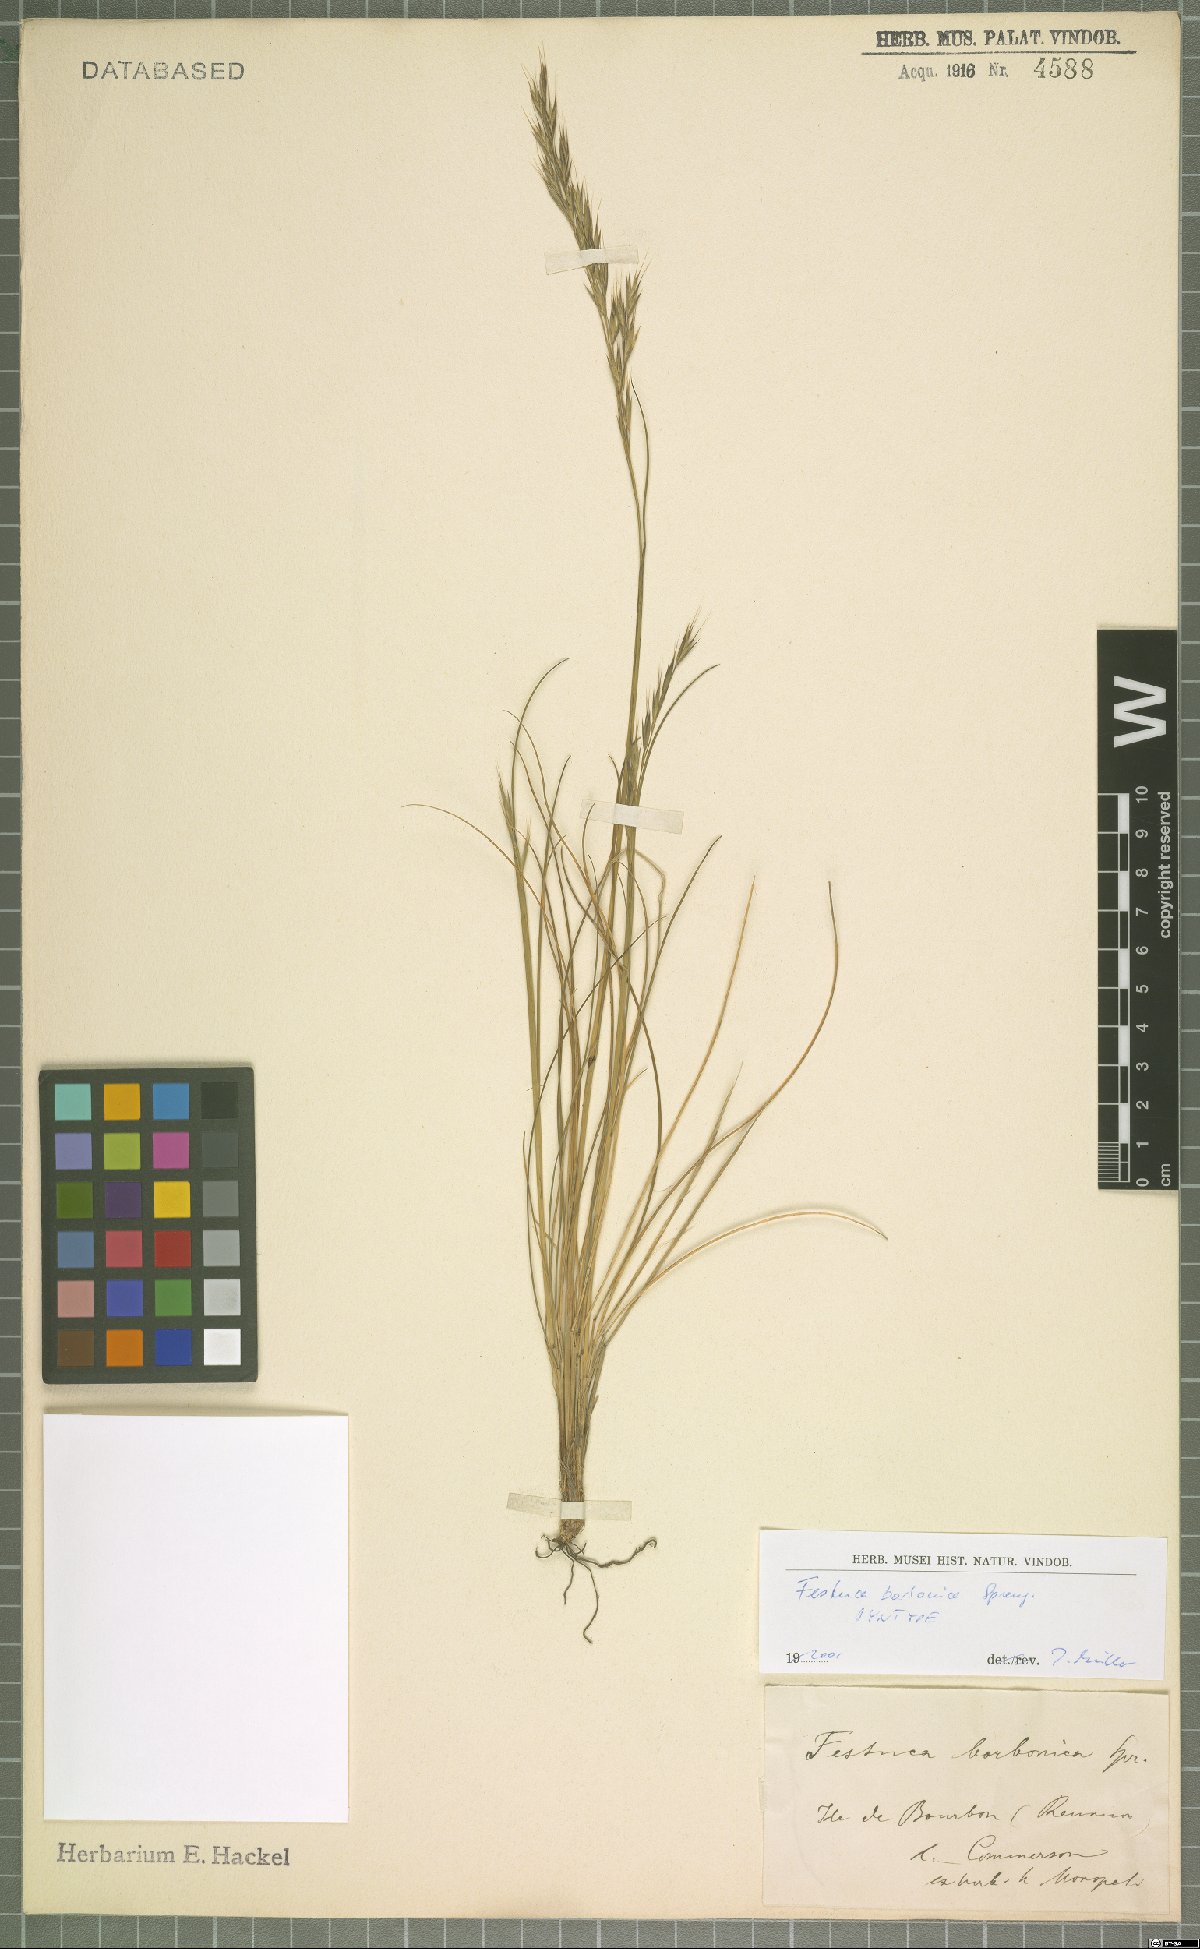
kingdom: Plantae
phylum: Tracheophyta
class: Liliopsida
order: Poales
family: Poaceae
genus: Festuca
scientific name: Festuca borbonica
